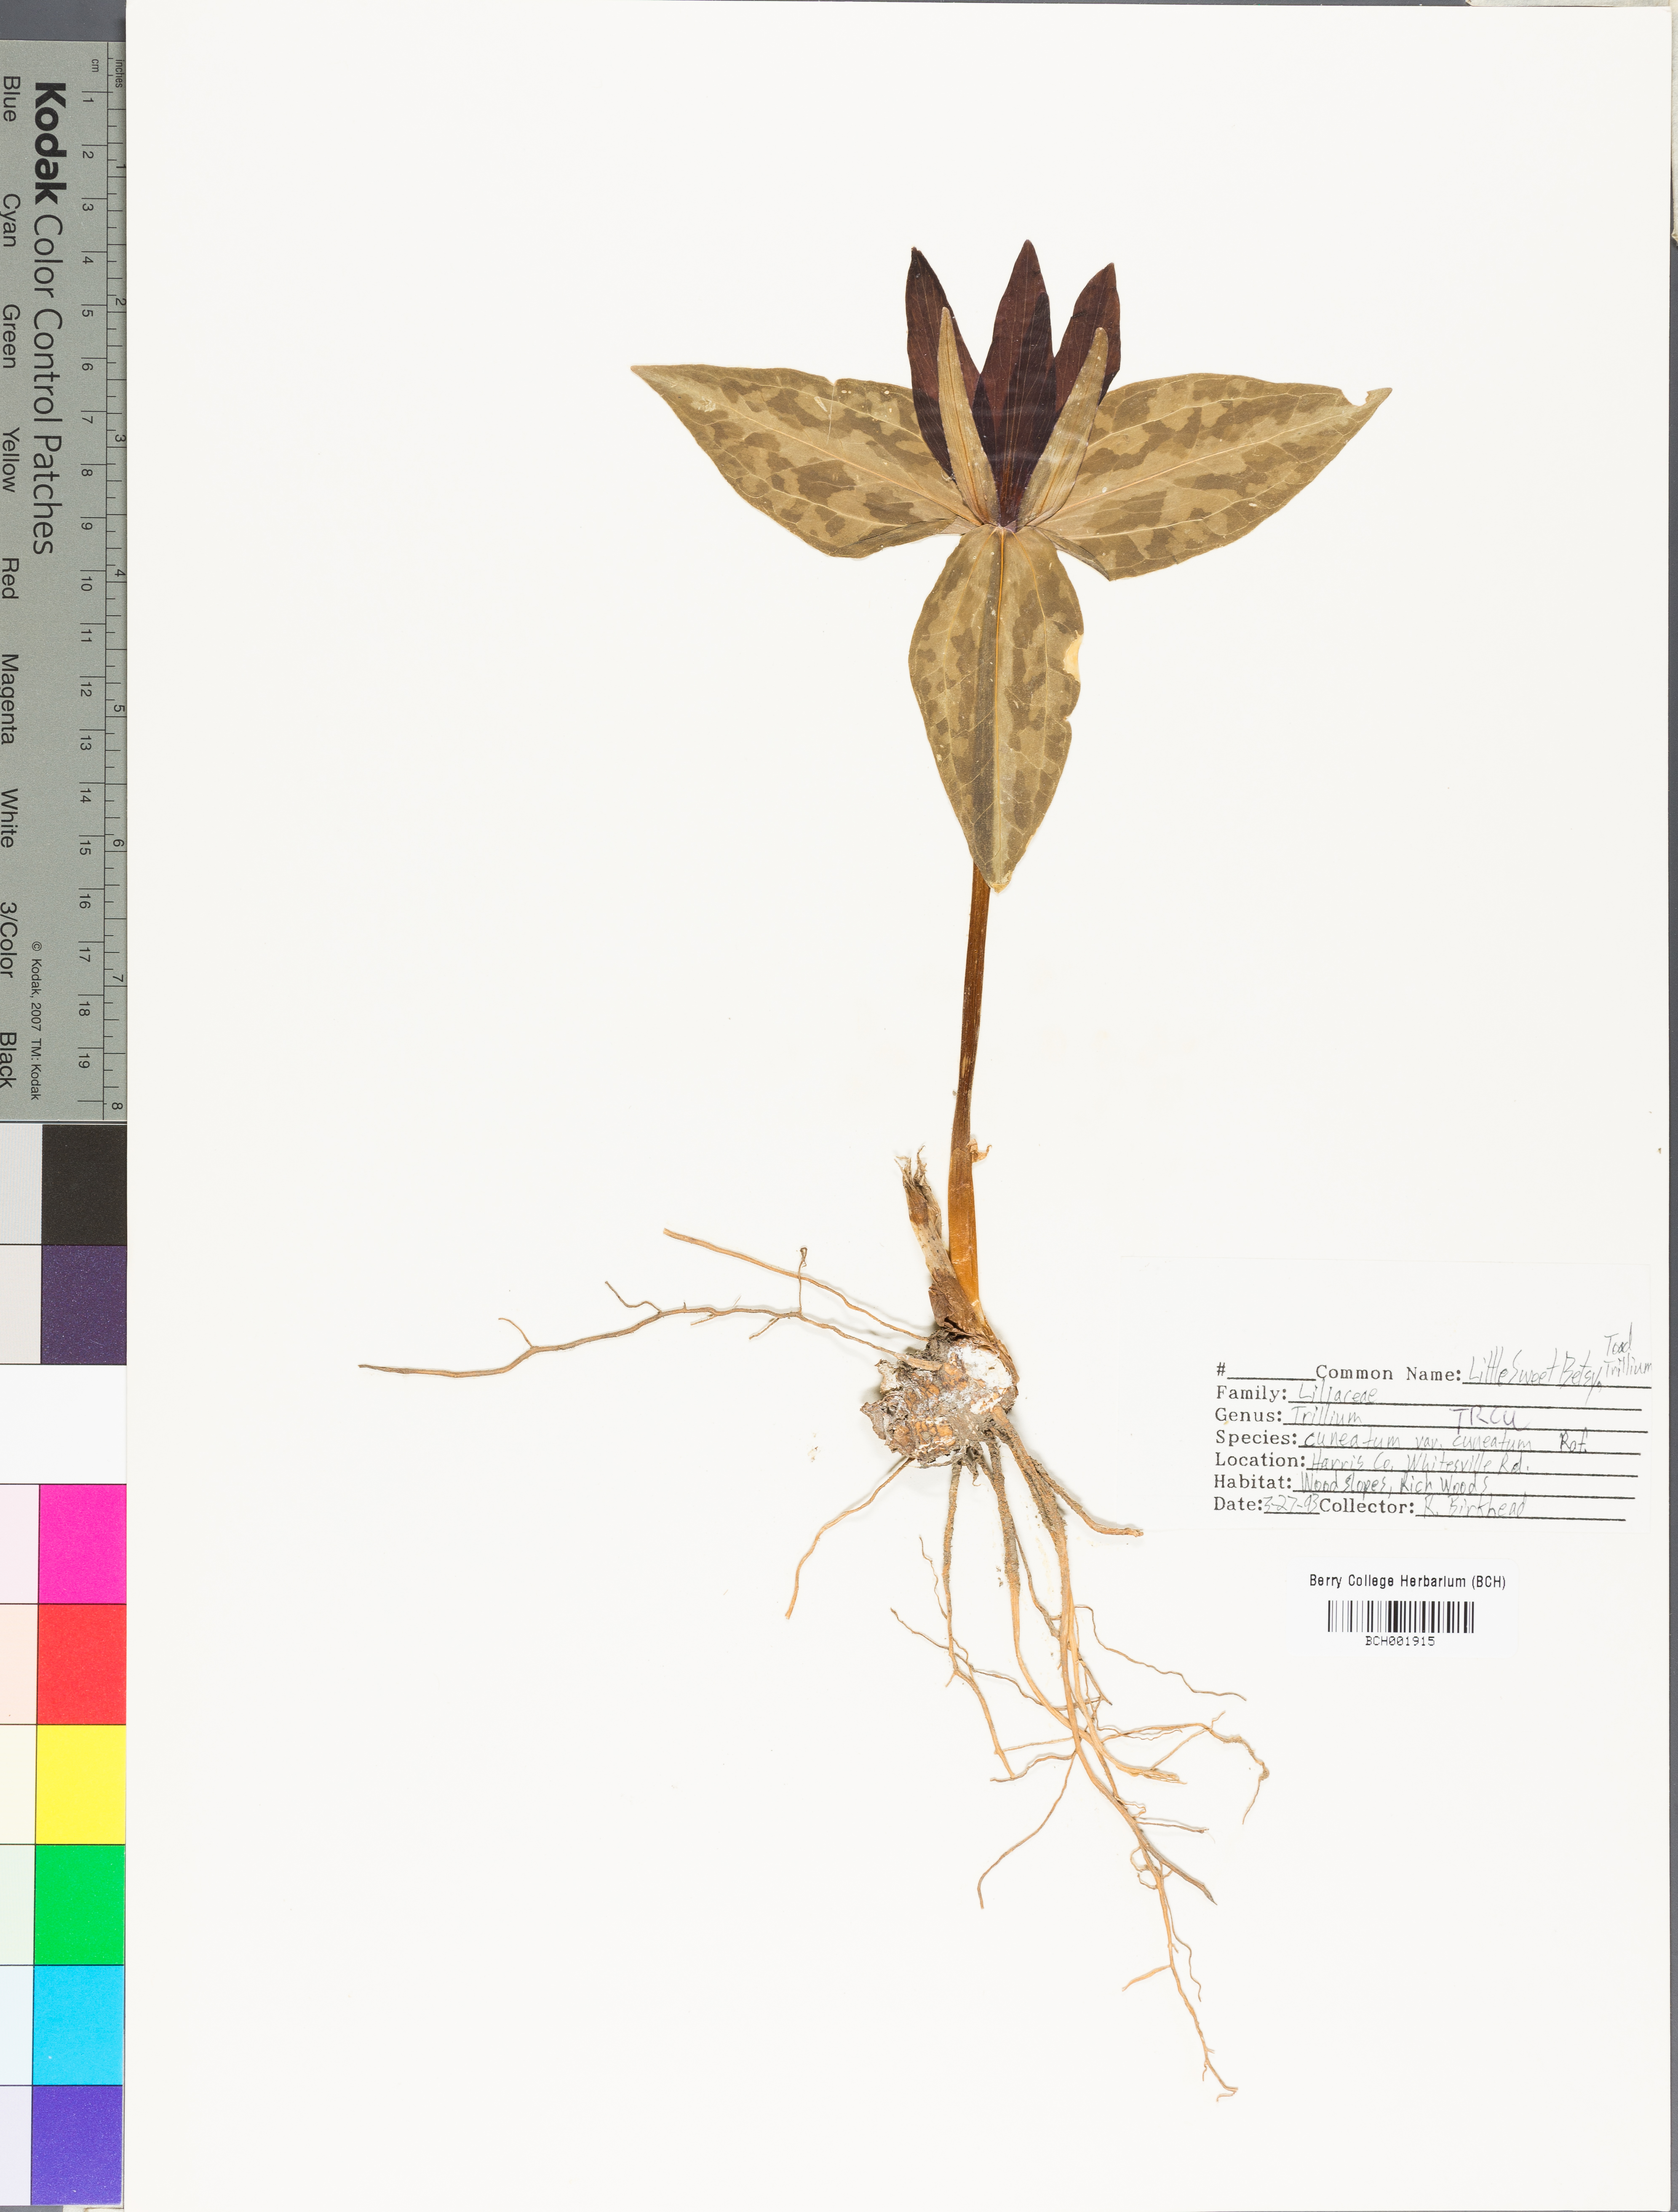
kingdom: Plantae
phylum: Tracheophyta
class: Liliopsida
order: Liliales
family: Melanthiaceae
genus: Trillium
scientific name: Trillium cuneatum
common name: Cuneate trillium
